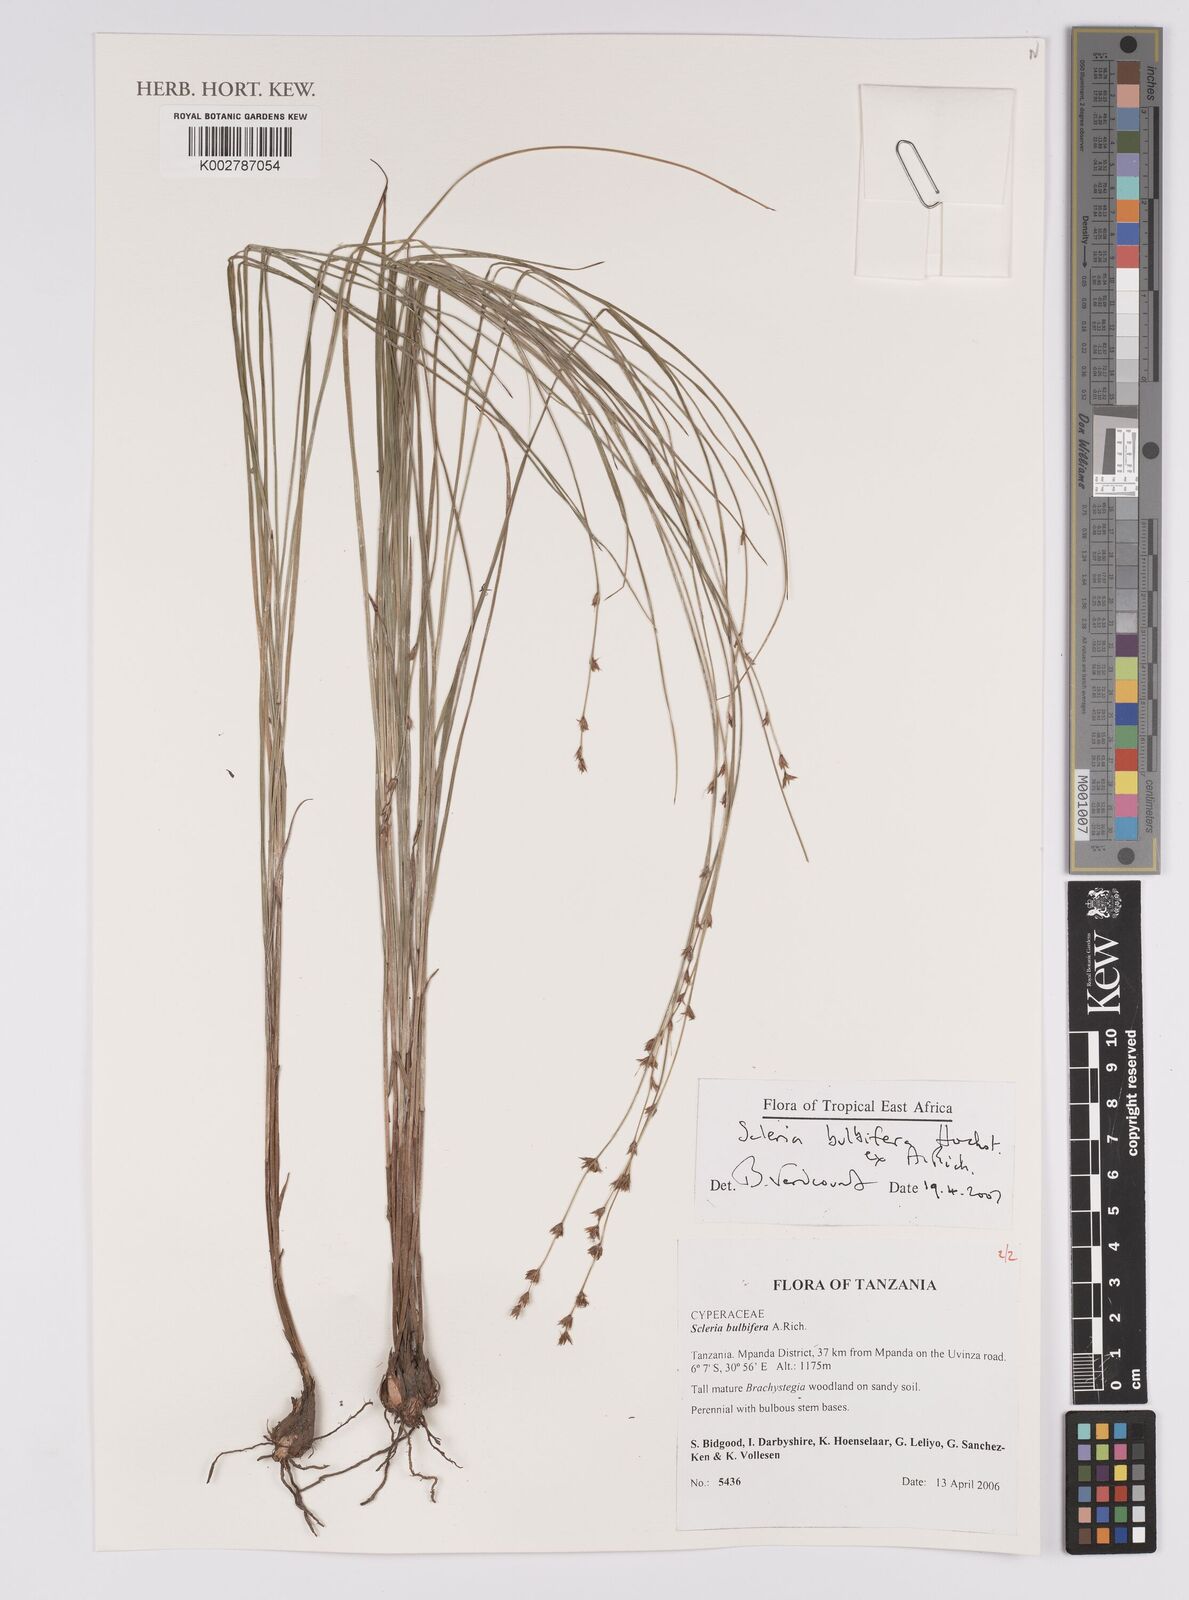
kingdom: Plantae
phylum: Tracheophyta
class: Liliopsida
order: Poales
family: Cyperaceae
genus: Scleria
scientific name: Scleria bulbifera
